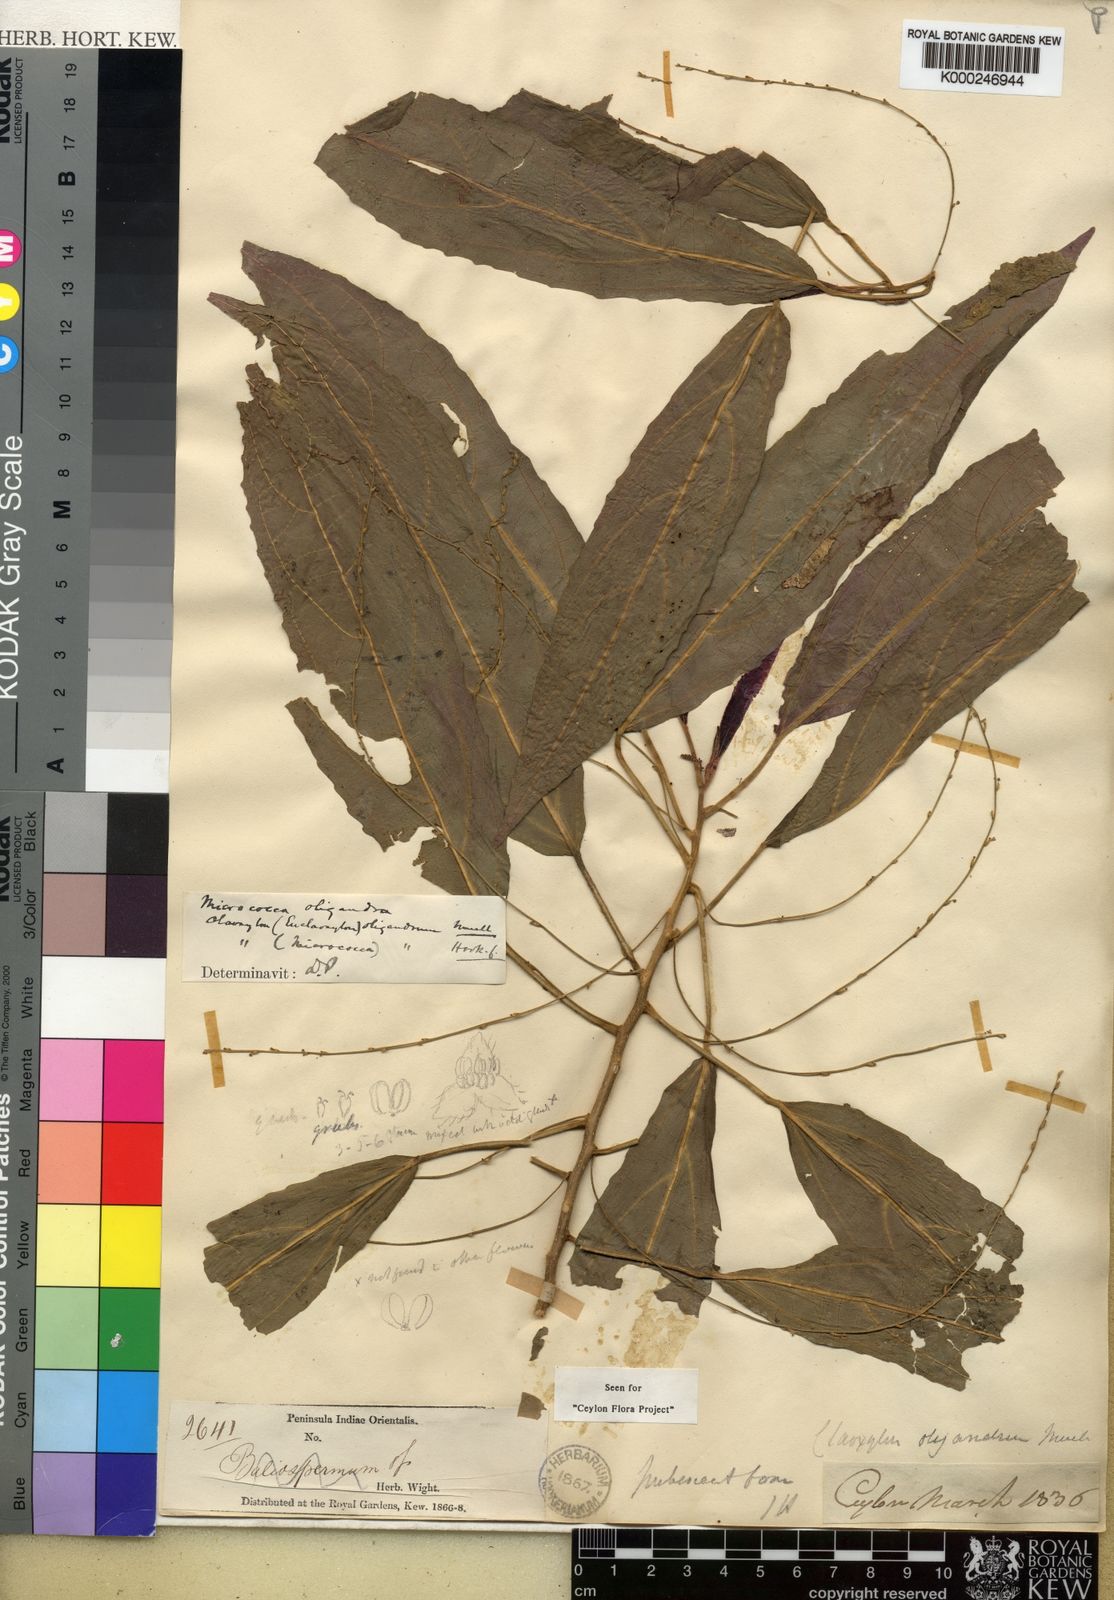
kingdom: Plantae
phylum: Tracheophyta
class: Magnoliopsida
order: Malpighiales
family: Euphorbiaceae
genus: Micrococca
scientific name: Micrococca
